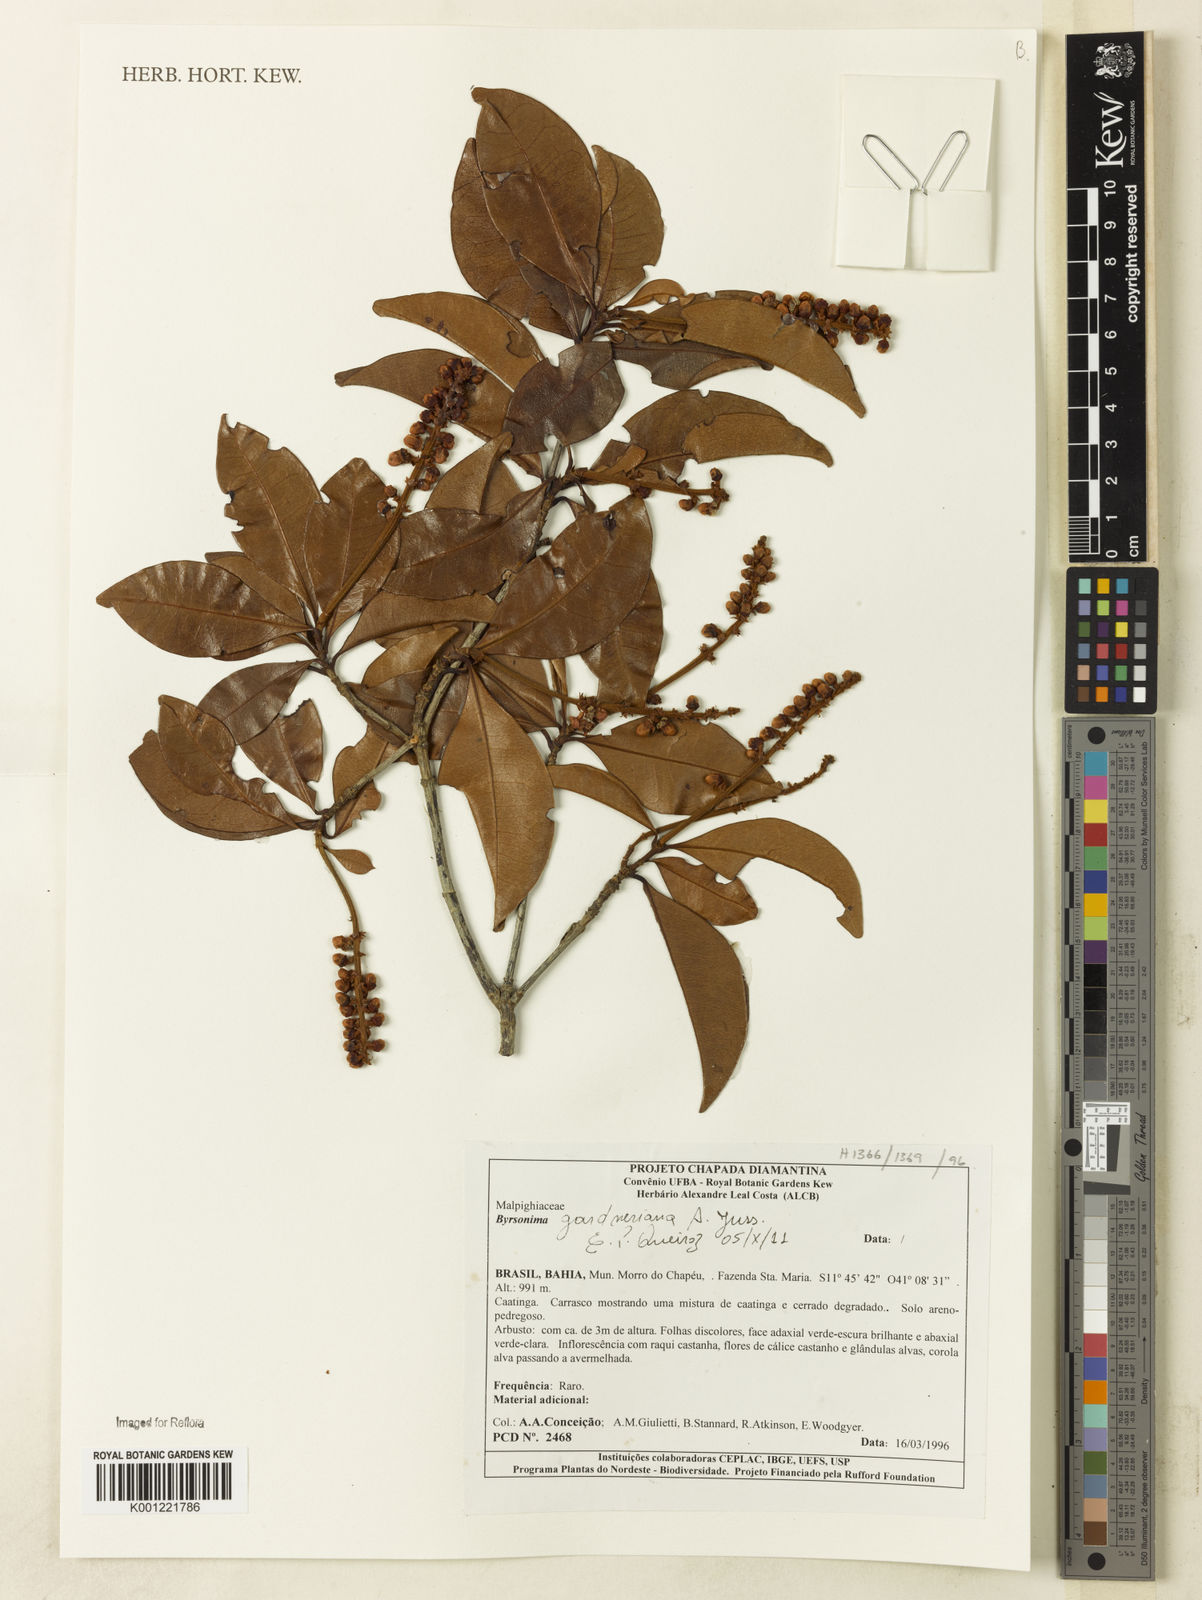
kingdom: Plantae
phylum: Tracheophyta
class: Magnoliopsida
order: Malpighiales
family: Malpighiaceae
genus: Byrsonima
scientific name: Byrsonima gardneriana
